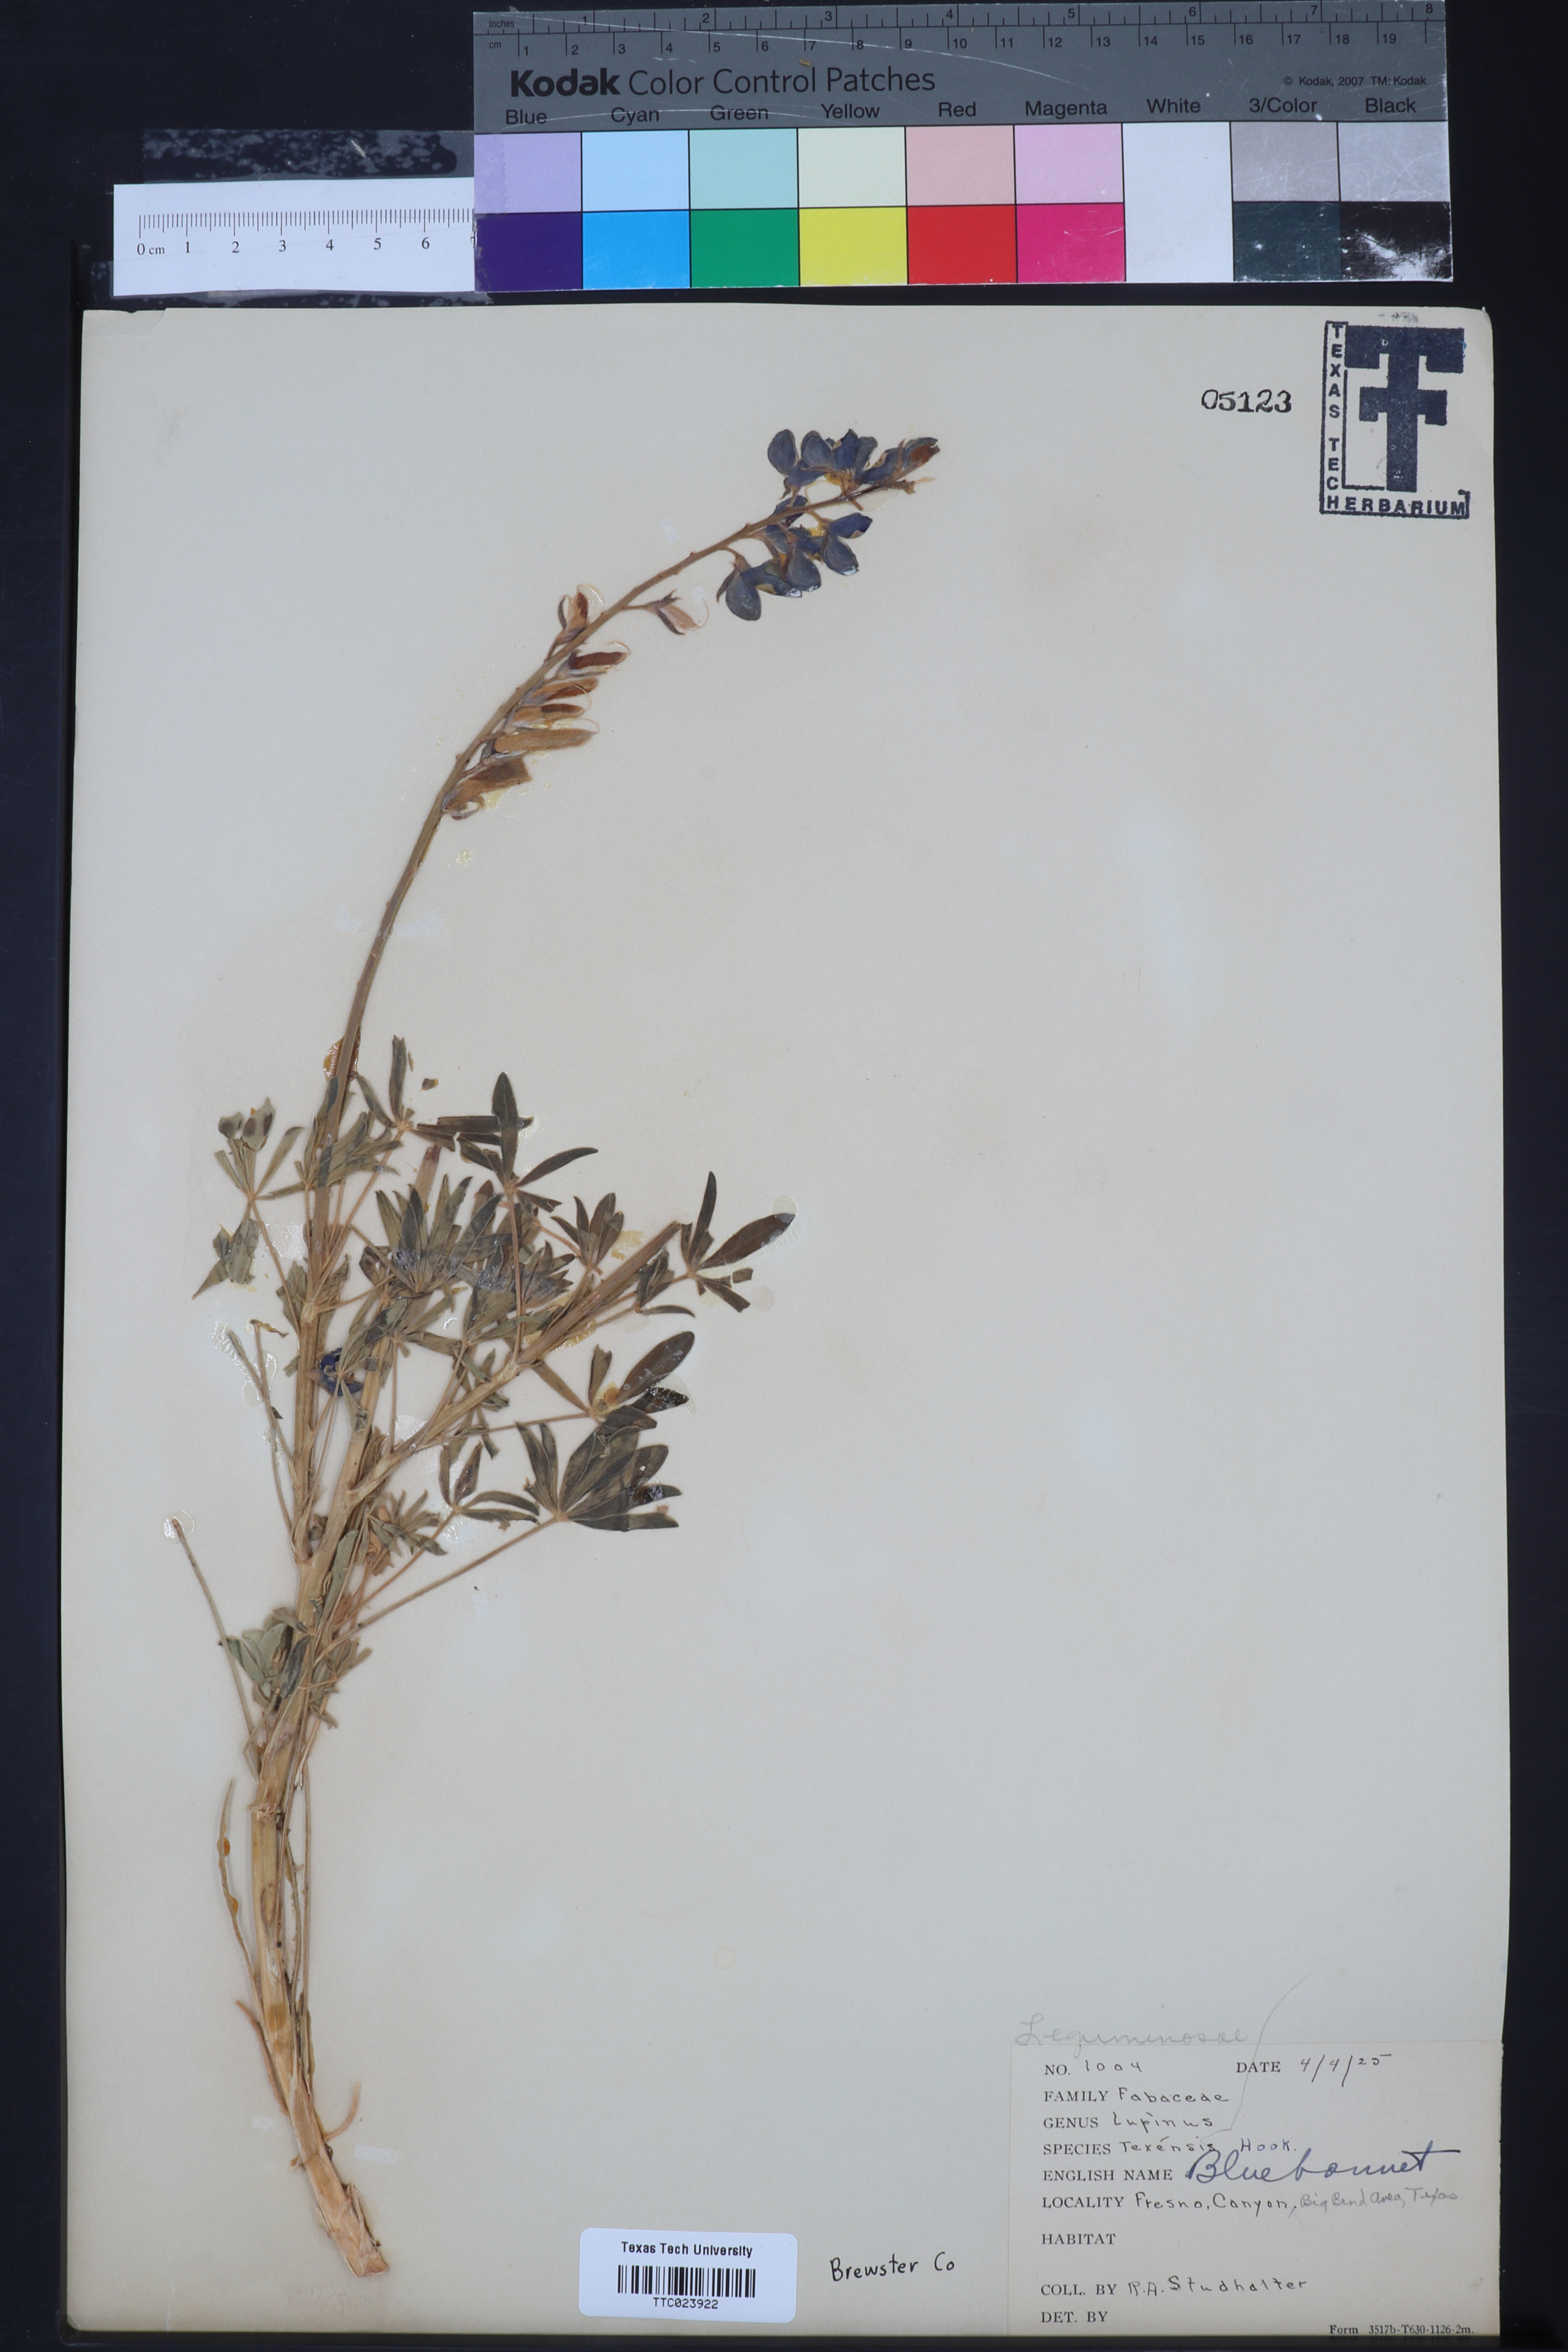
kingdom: Plantae
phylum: Tracheophyta
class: Magnoliopsida
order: Fabales
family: Fabaceae
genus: Lupinus
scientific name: Lupinus texensis
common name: Texas bluebonnet
